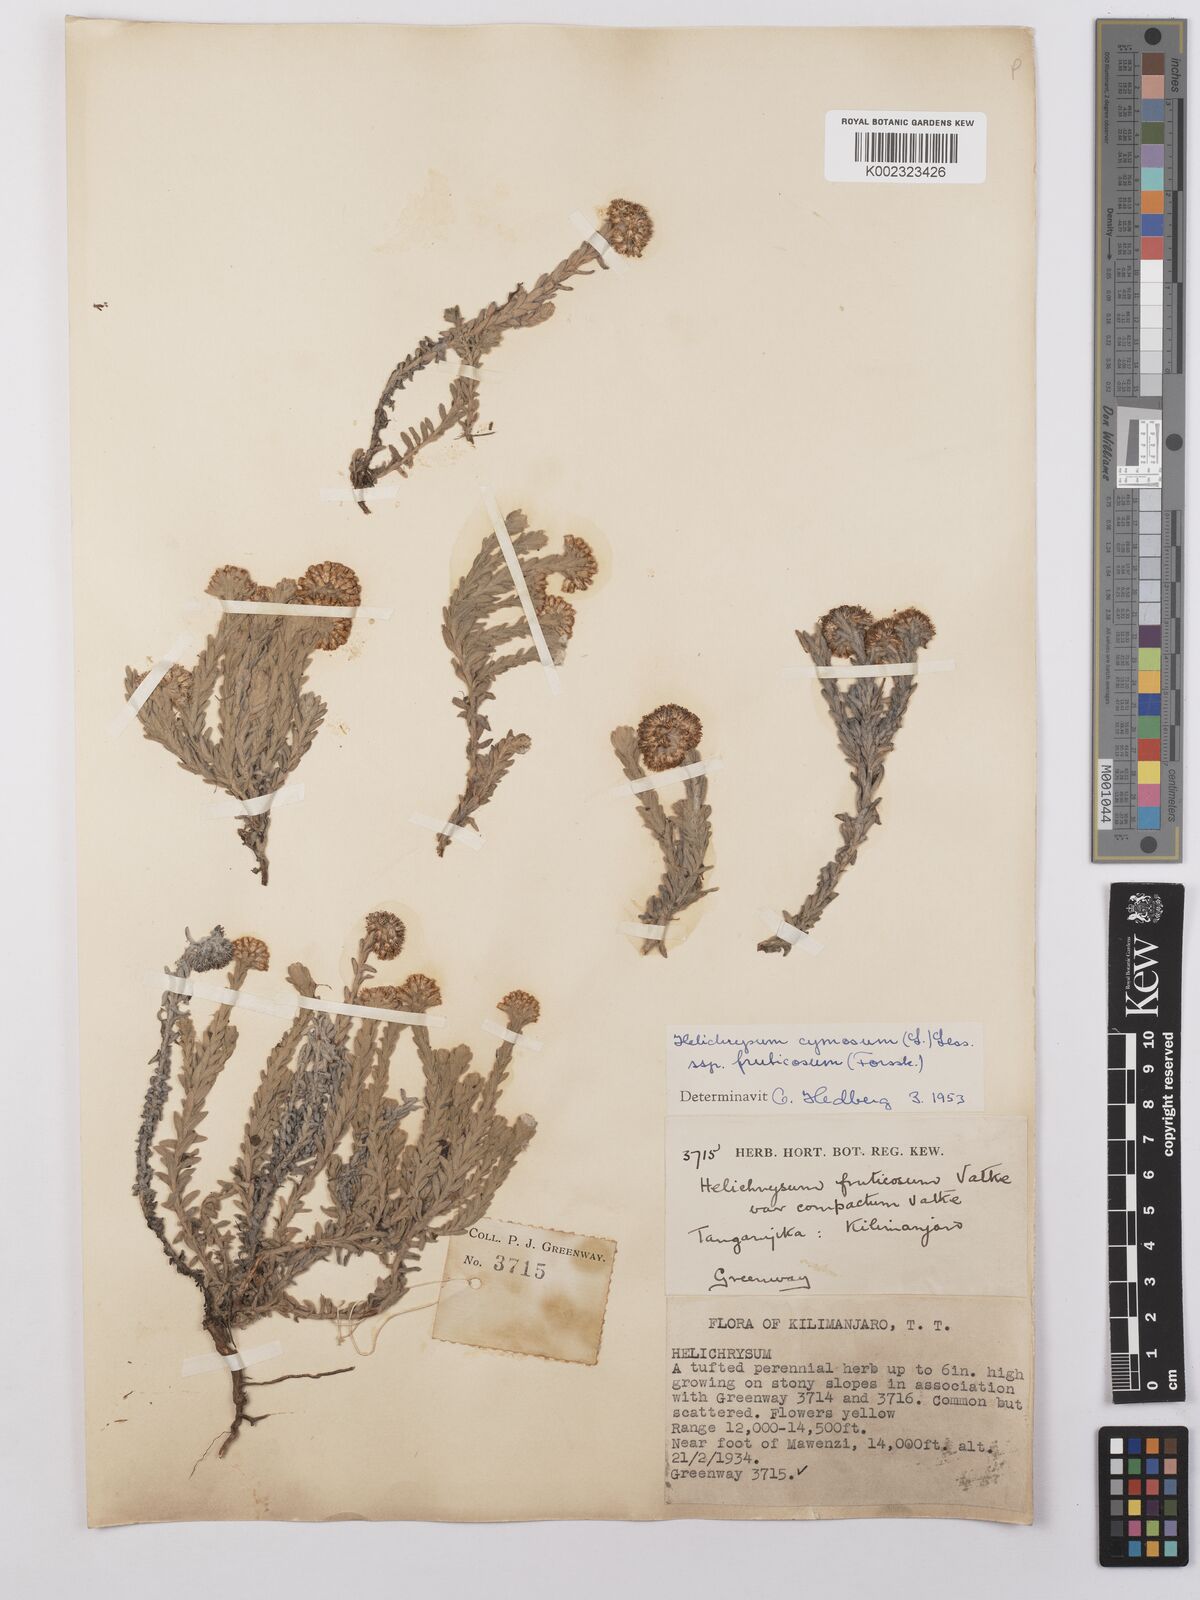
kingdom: Plantae
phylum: Tracheophyta
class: Magnoliopsida
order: Asterales
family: Asteraceae
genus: Helichrysum
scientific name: Helichrysum forskahlii
